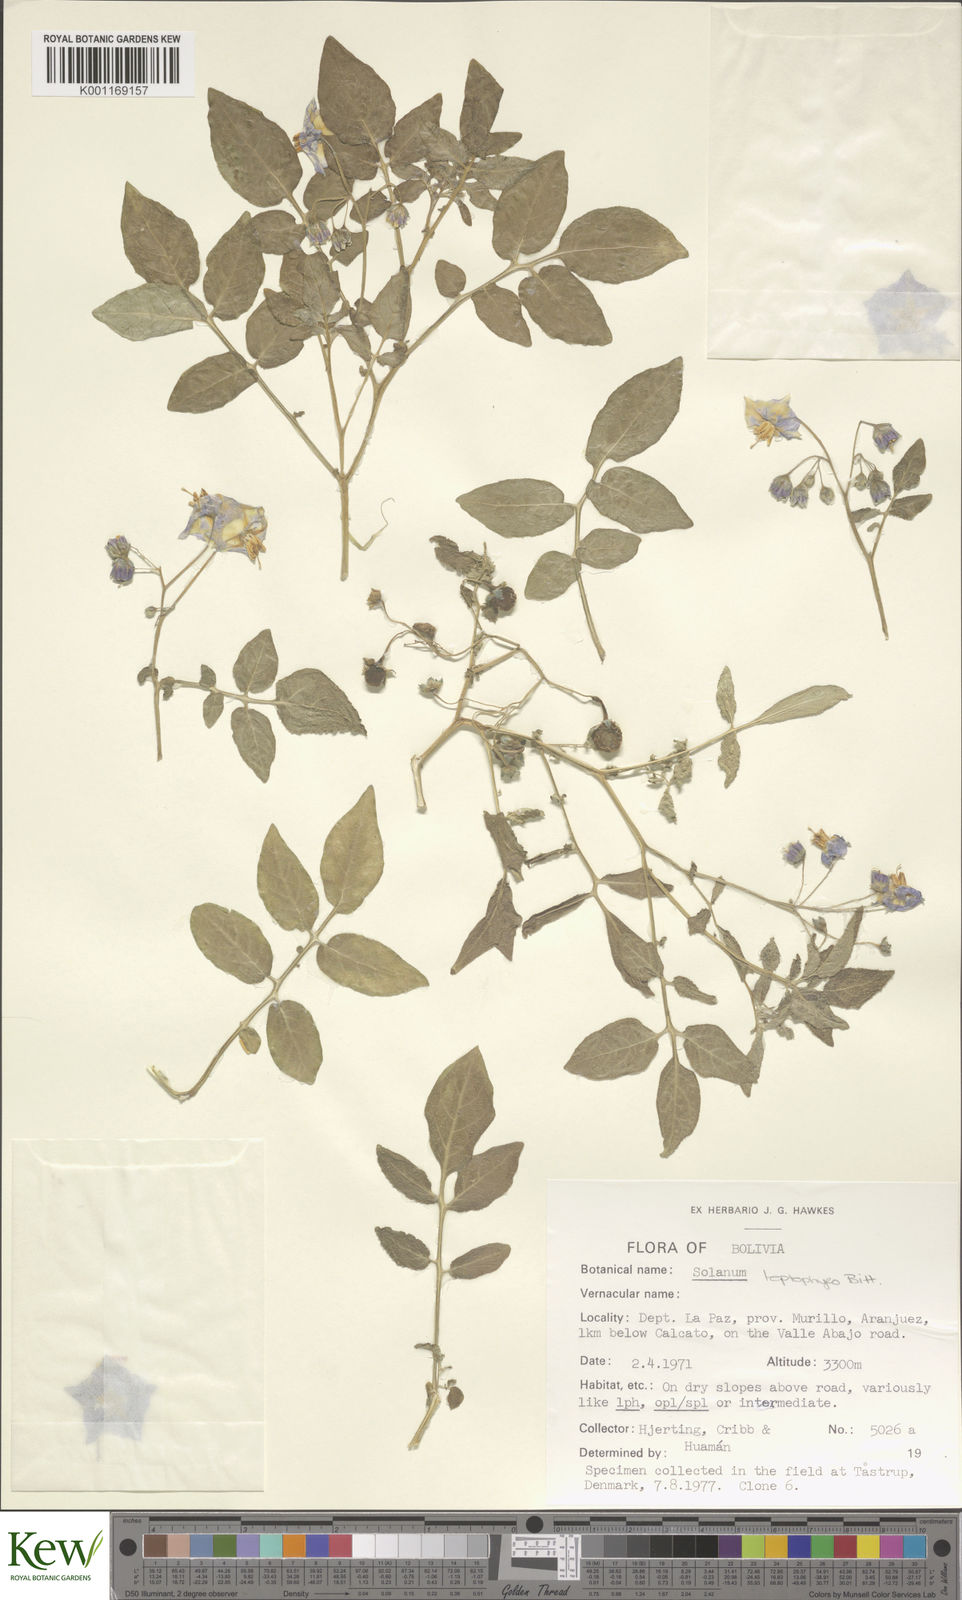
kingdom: Plantae
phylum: Tracheophyta
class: Magnoliopsida
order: Solanales
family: Solanaceae
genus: Solanum
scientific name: Solanum brevicaule
